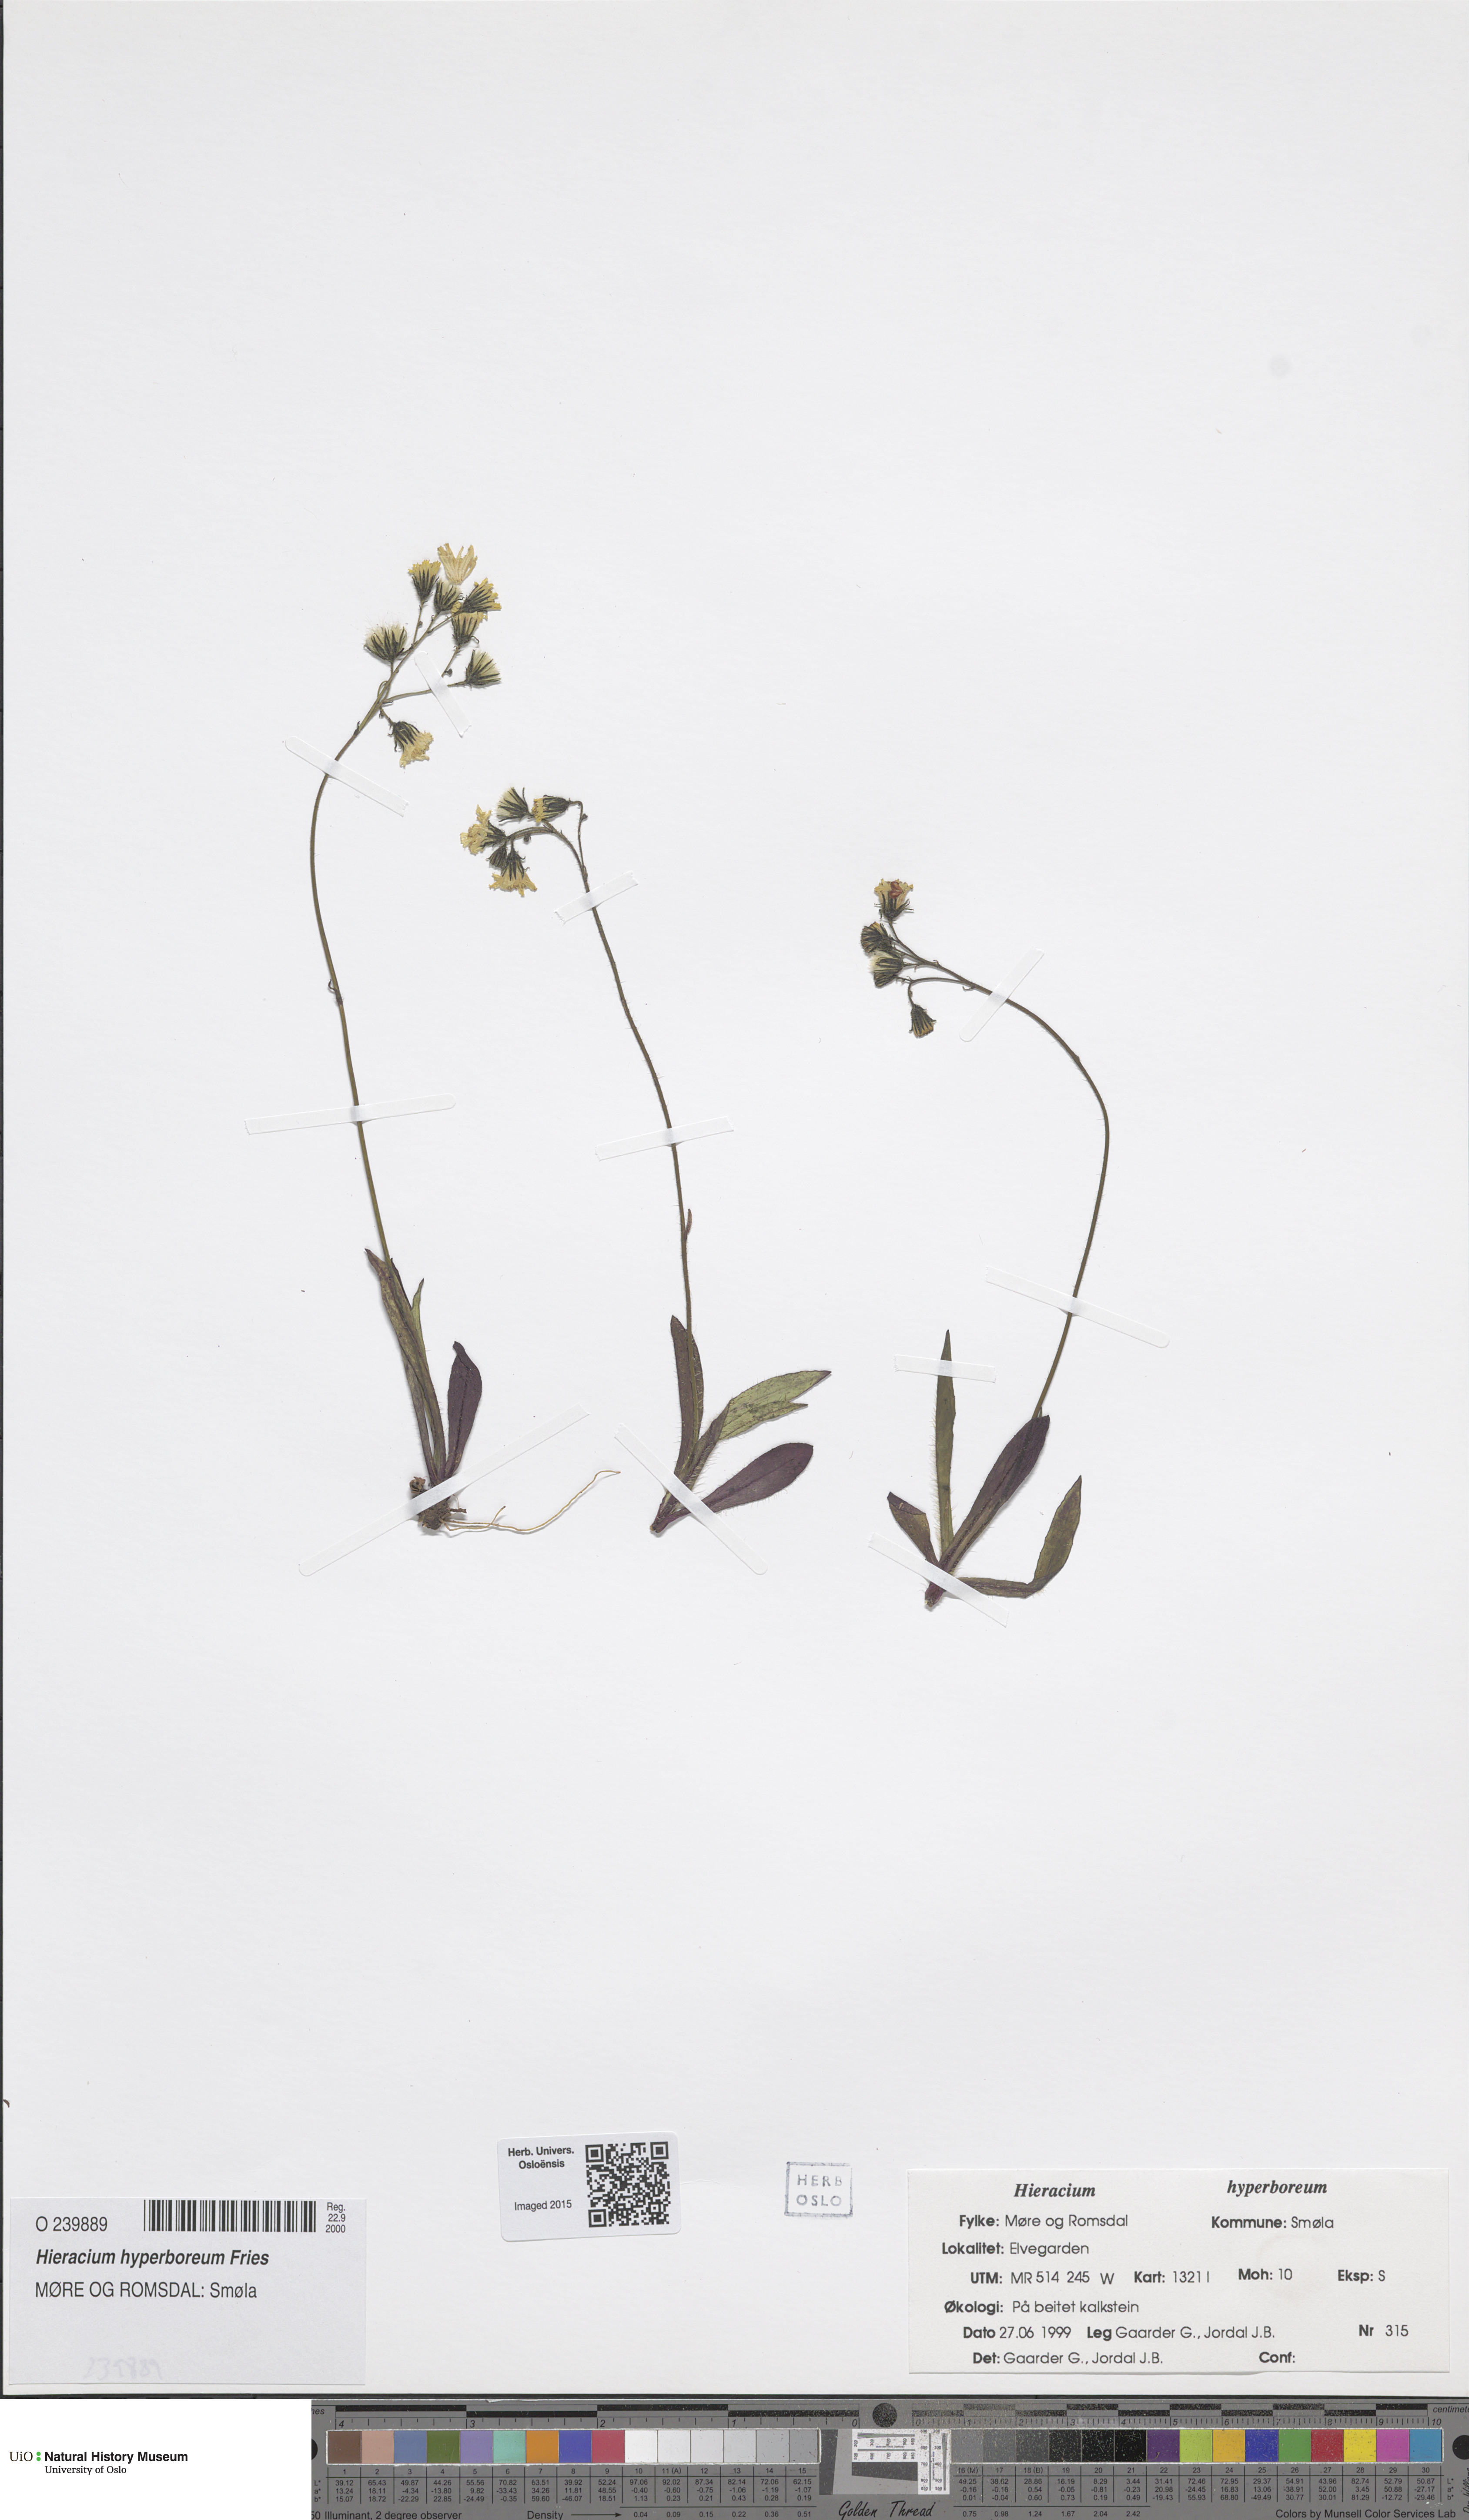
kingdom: Plantae
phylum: Tracheophyta
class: Magnoliopsida
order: Asterales
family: Asteraceae
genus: Pilosella
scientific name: Pilosella hyperborea
